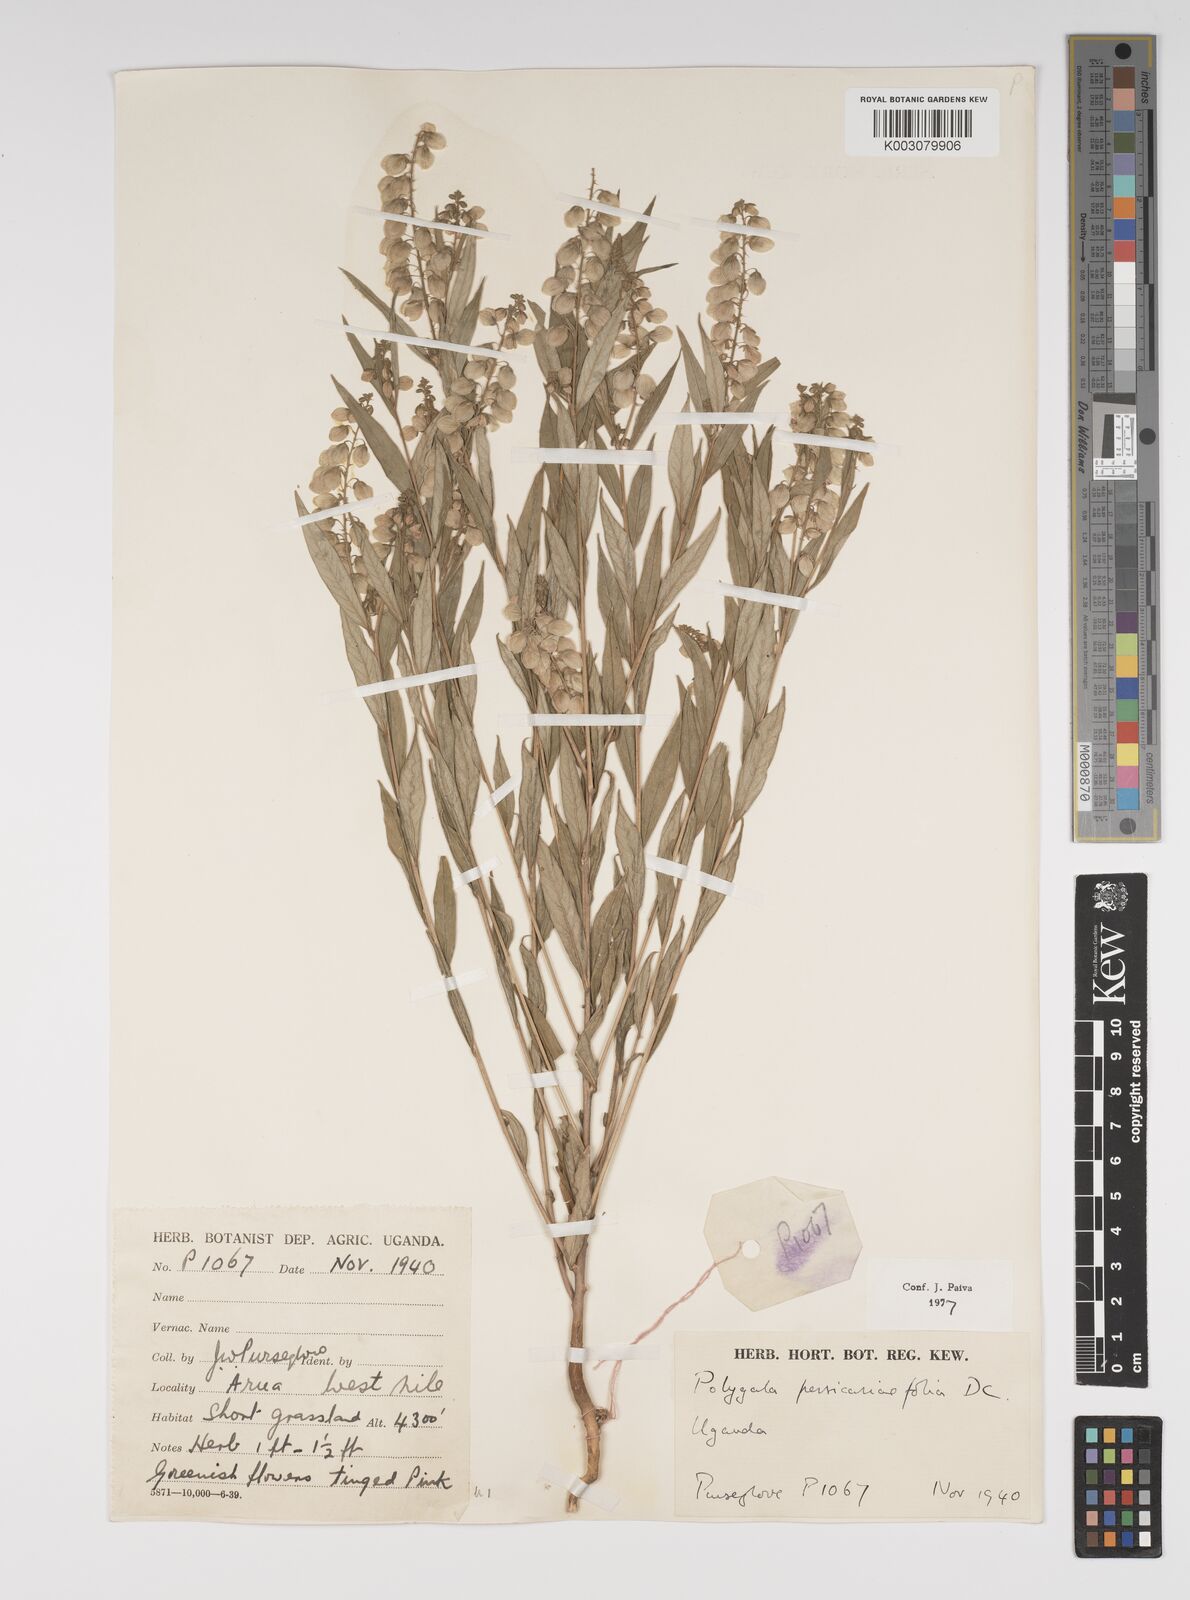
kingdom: Plantae
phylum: Tracheophyta
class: Magnoliopsida
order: Fabales
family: Polygalaceae
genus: Polygala
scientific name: Polygala persicariifolia
